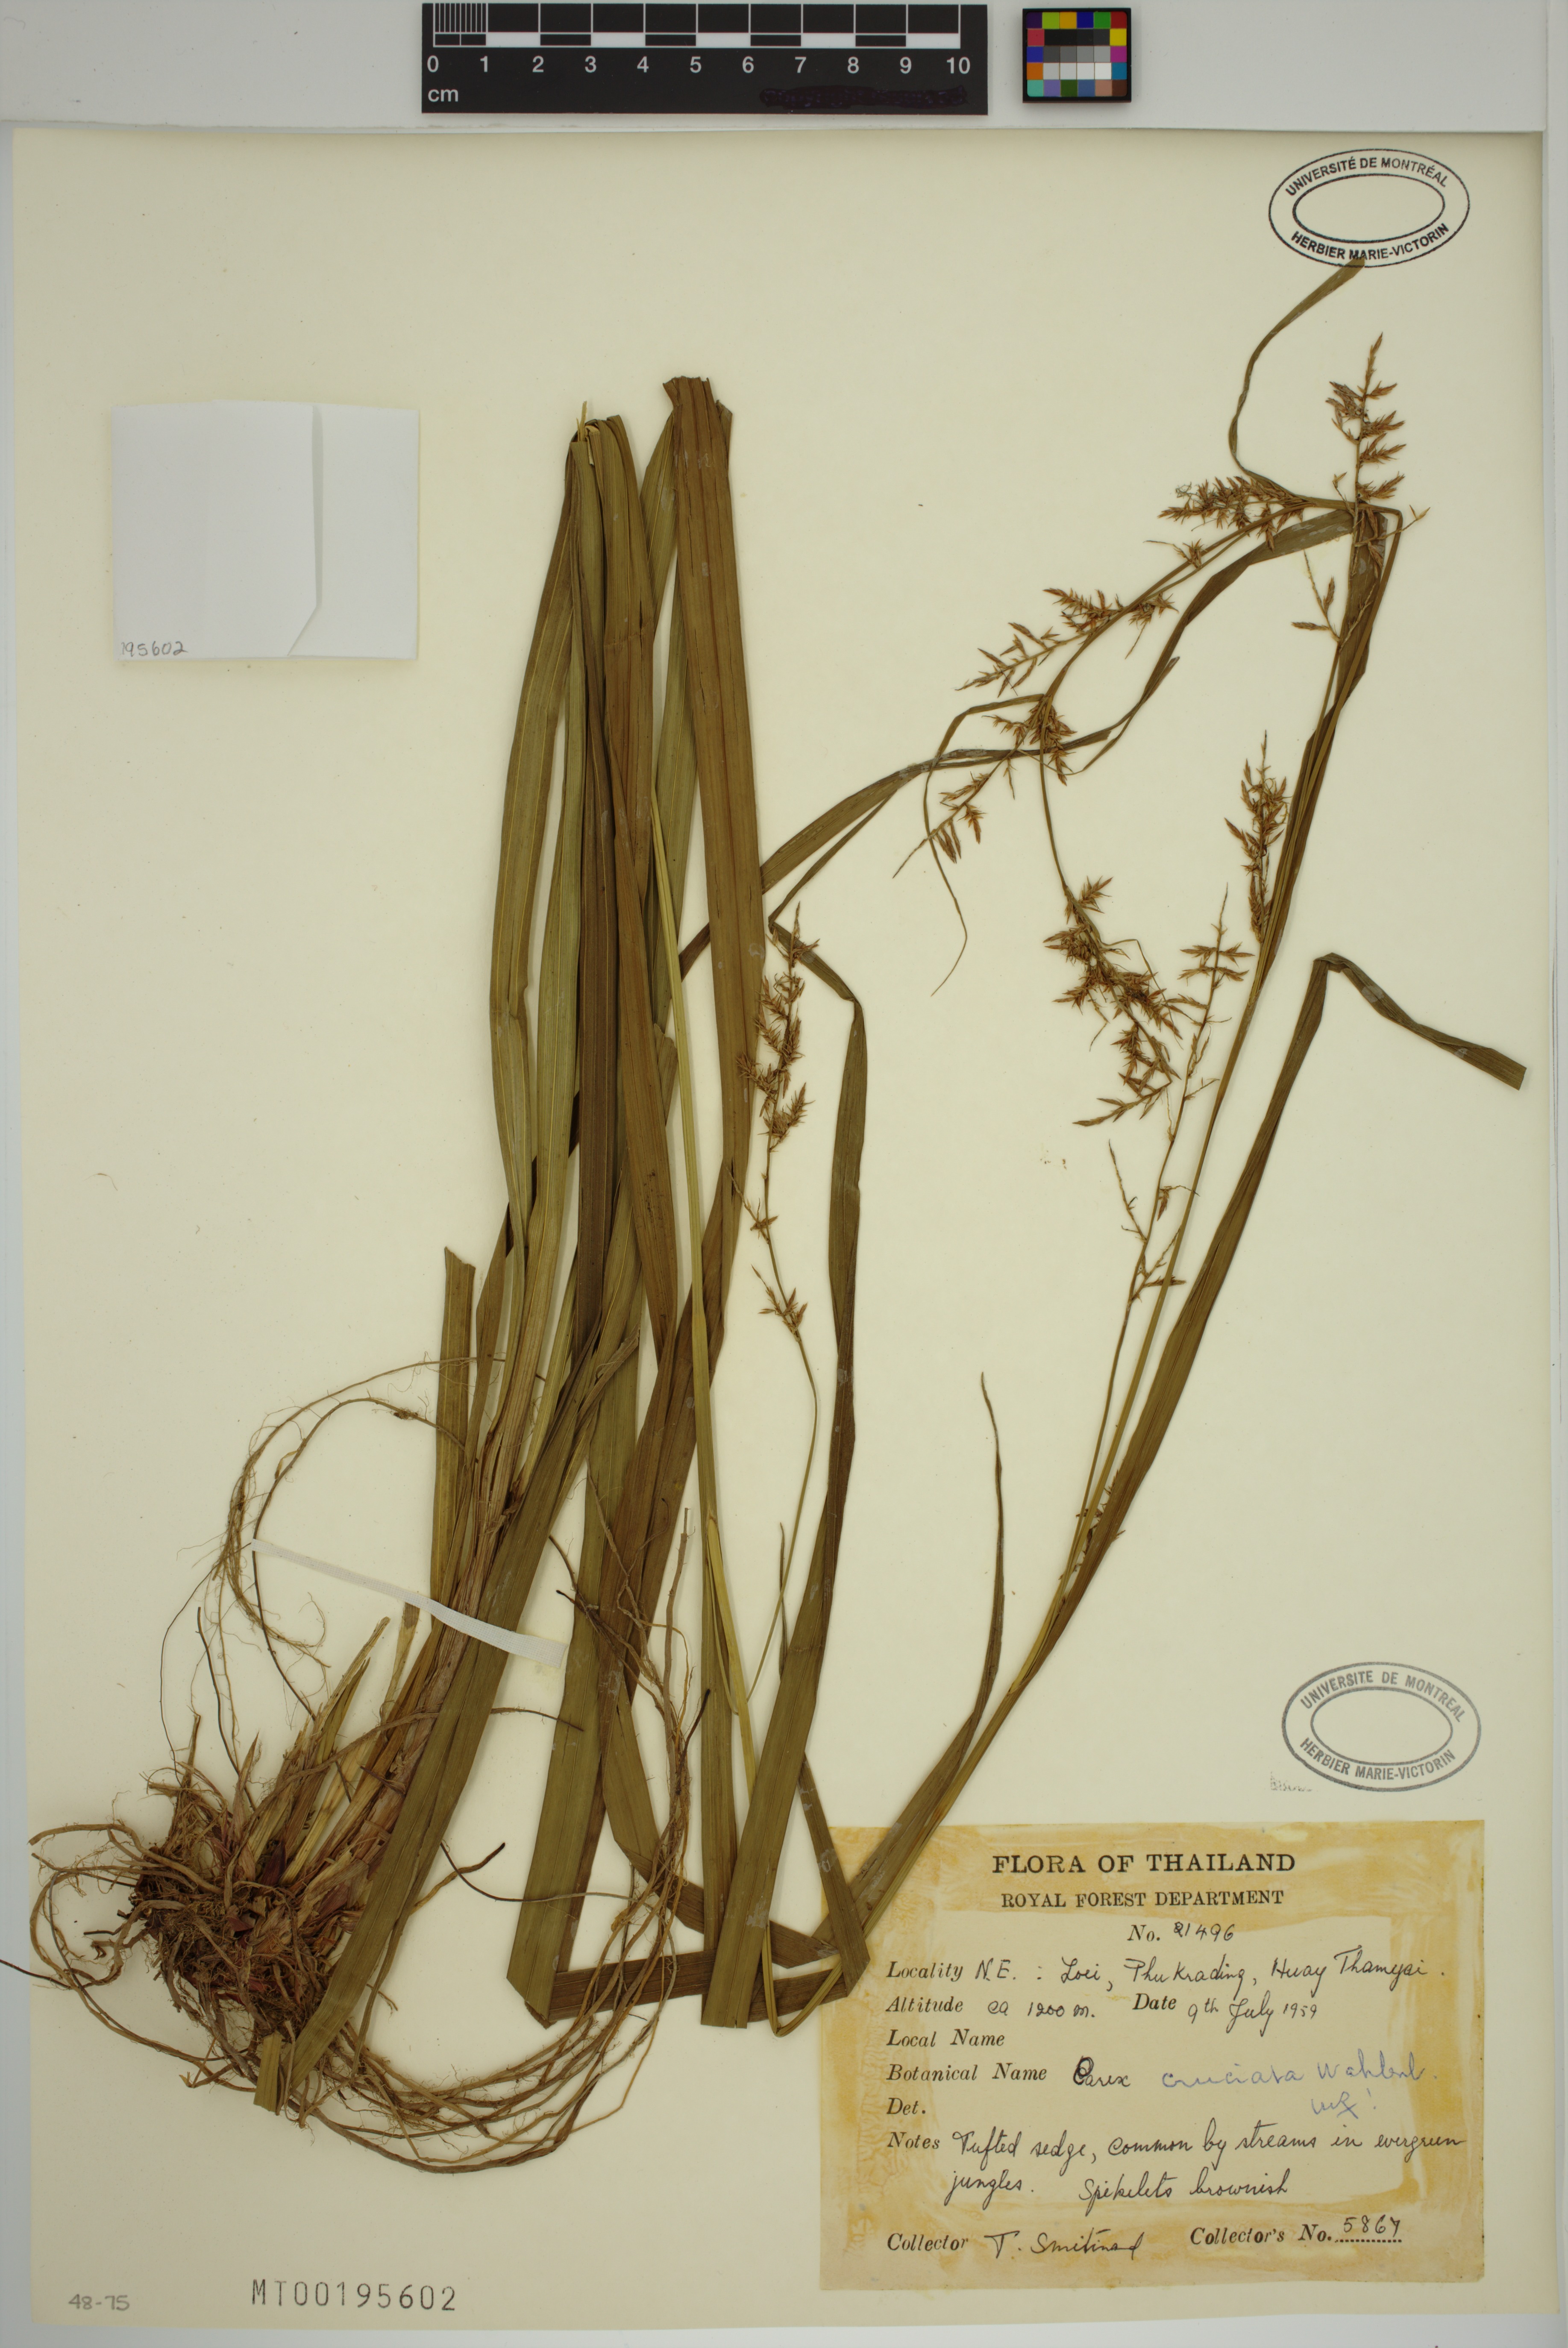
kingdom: Plantae
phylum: Tracheophyta
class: Liliopsida
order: Poales
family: Cyperaceae
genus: Carex
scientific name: Carex cruciata
